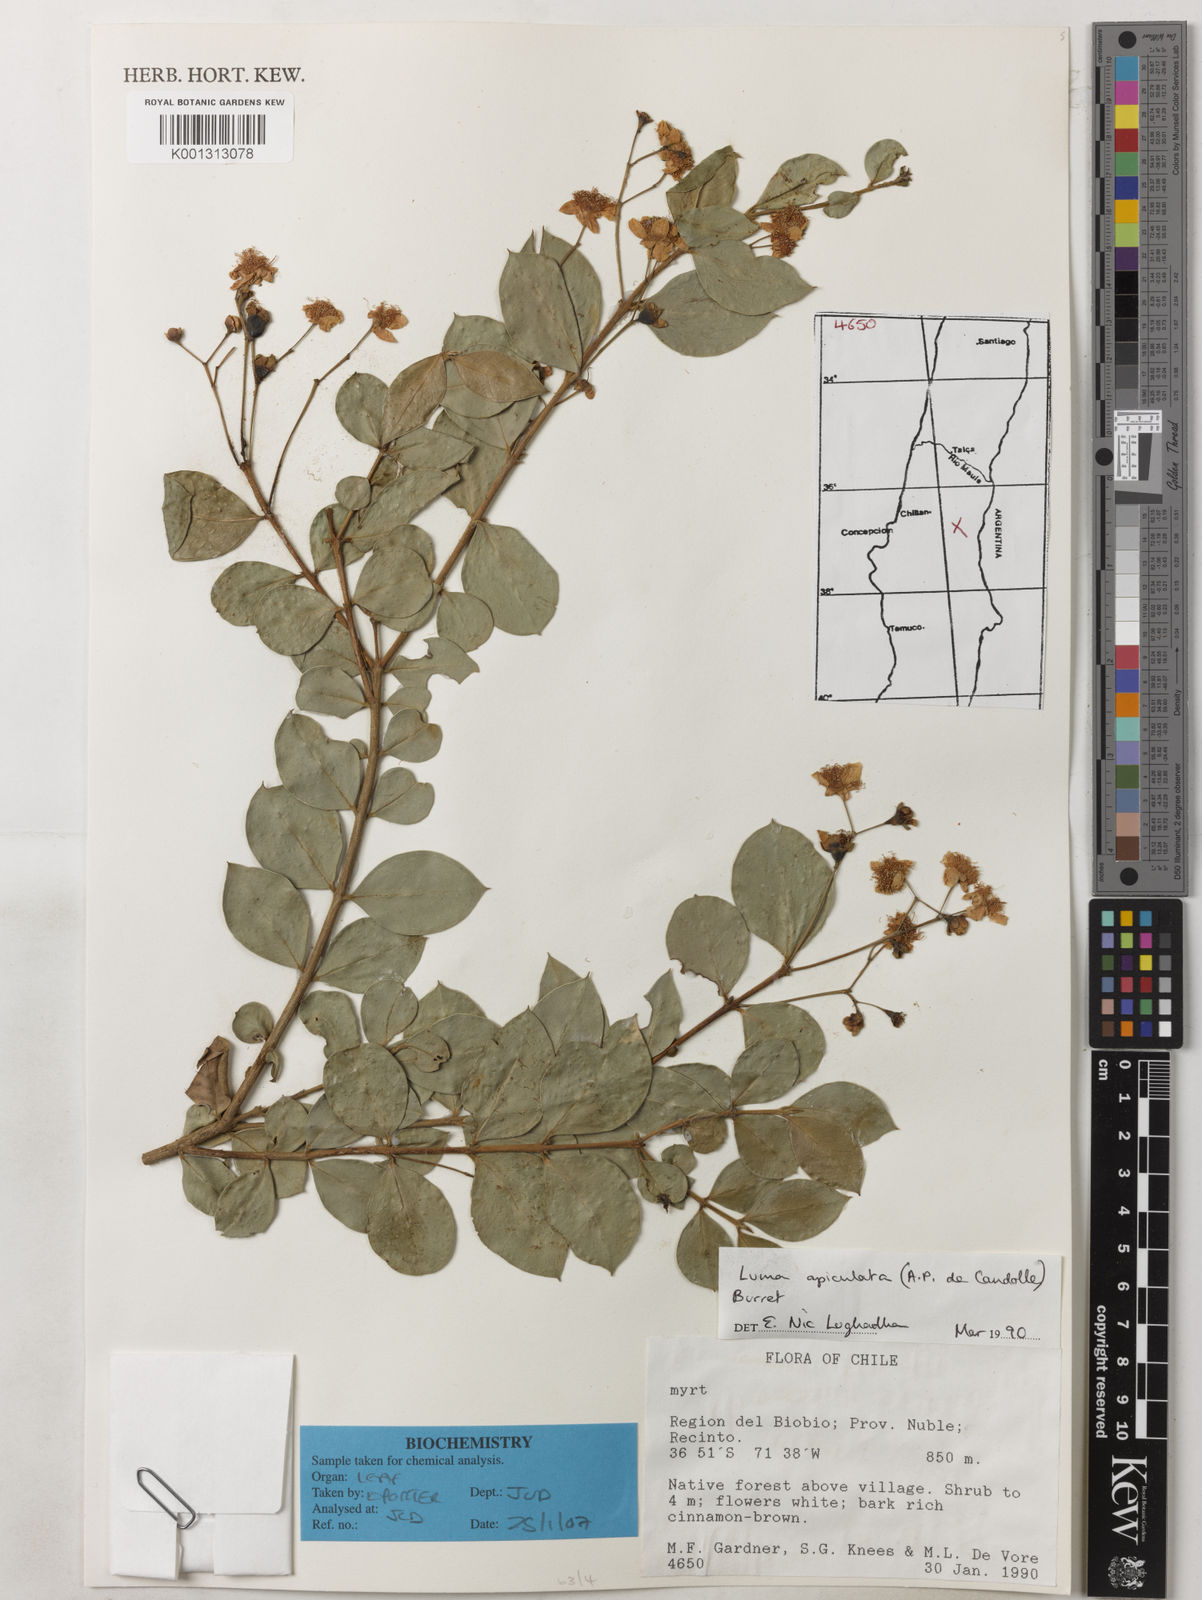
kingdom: Plantae
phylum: Tracheophyta
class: Magnoliopsida
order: Myrtales
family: Myrtaceae
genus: Luma
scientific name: Luma apiculata
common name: Chilean myrtle
